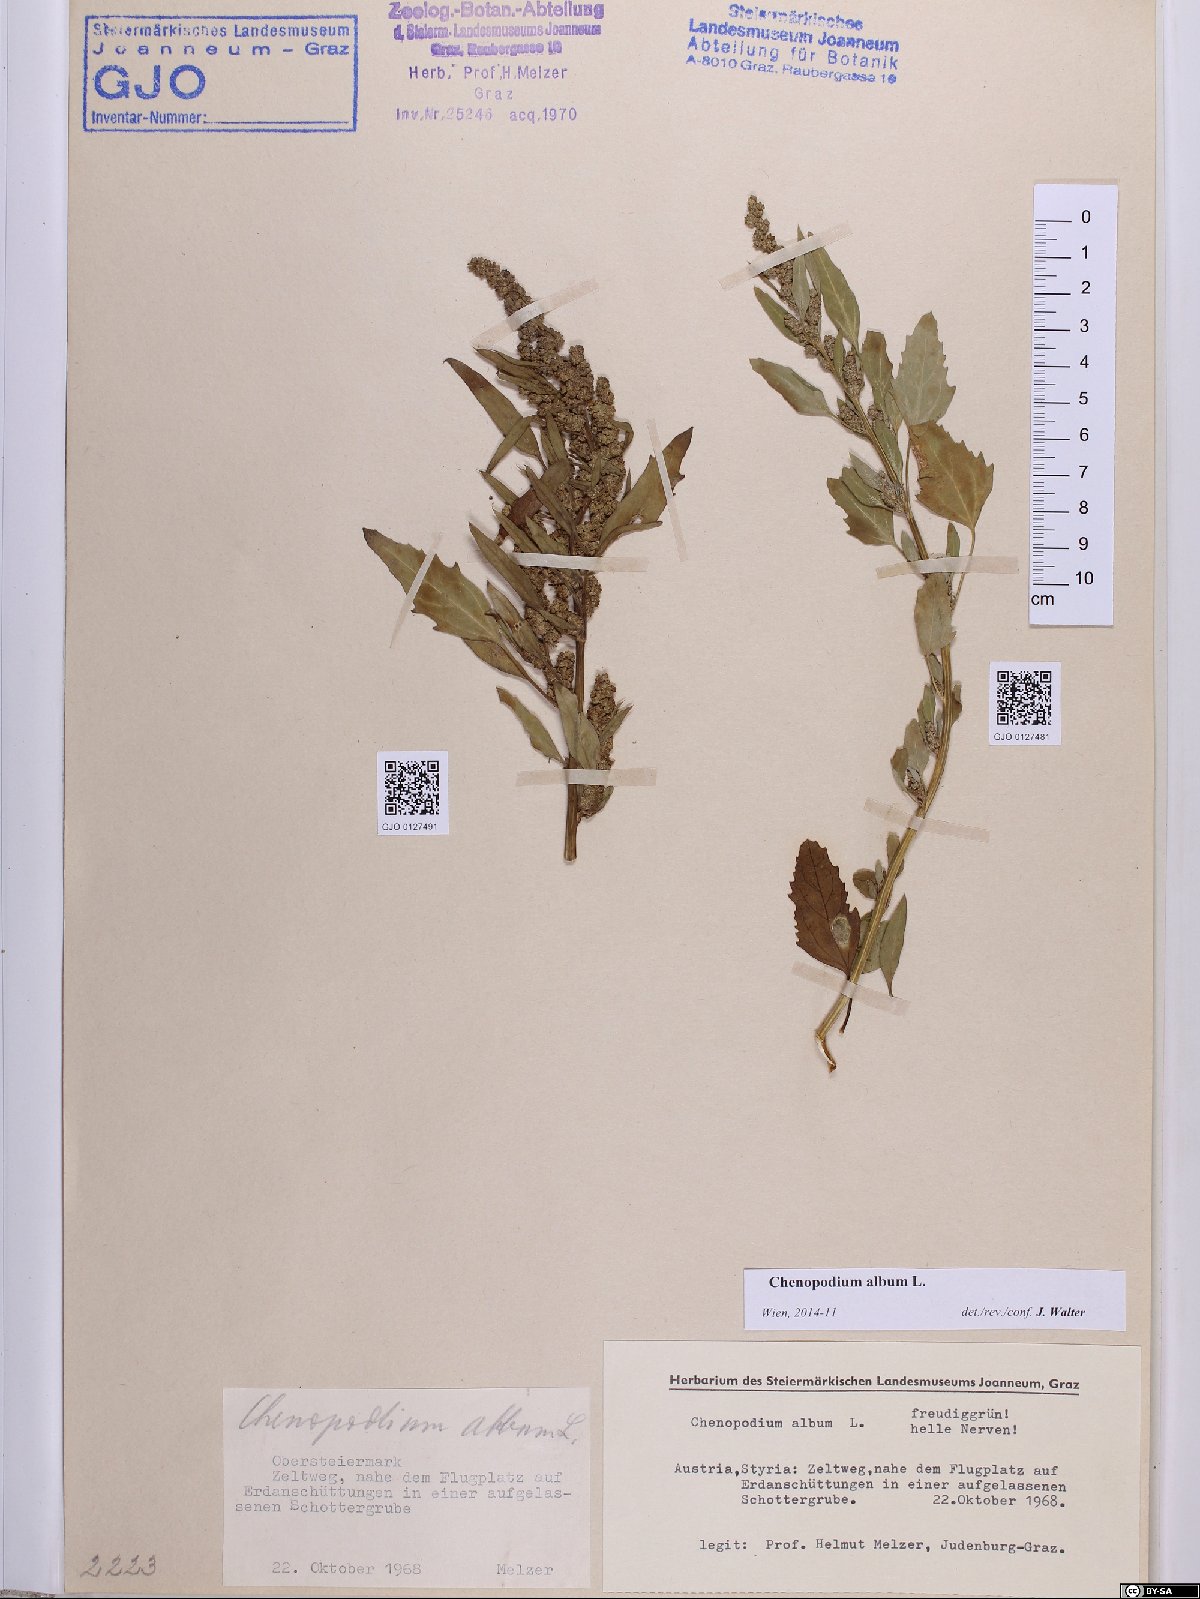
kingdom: Plantae
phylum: Tracheophyta
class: Magnoliopsida
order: Caryophyllales
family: Amaranthaceae
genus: Chenopodium
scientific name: Chenopodium album
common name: Fat-hen
